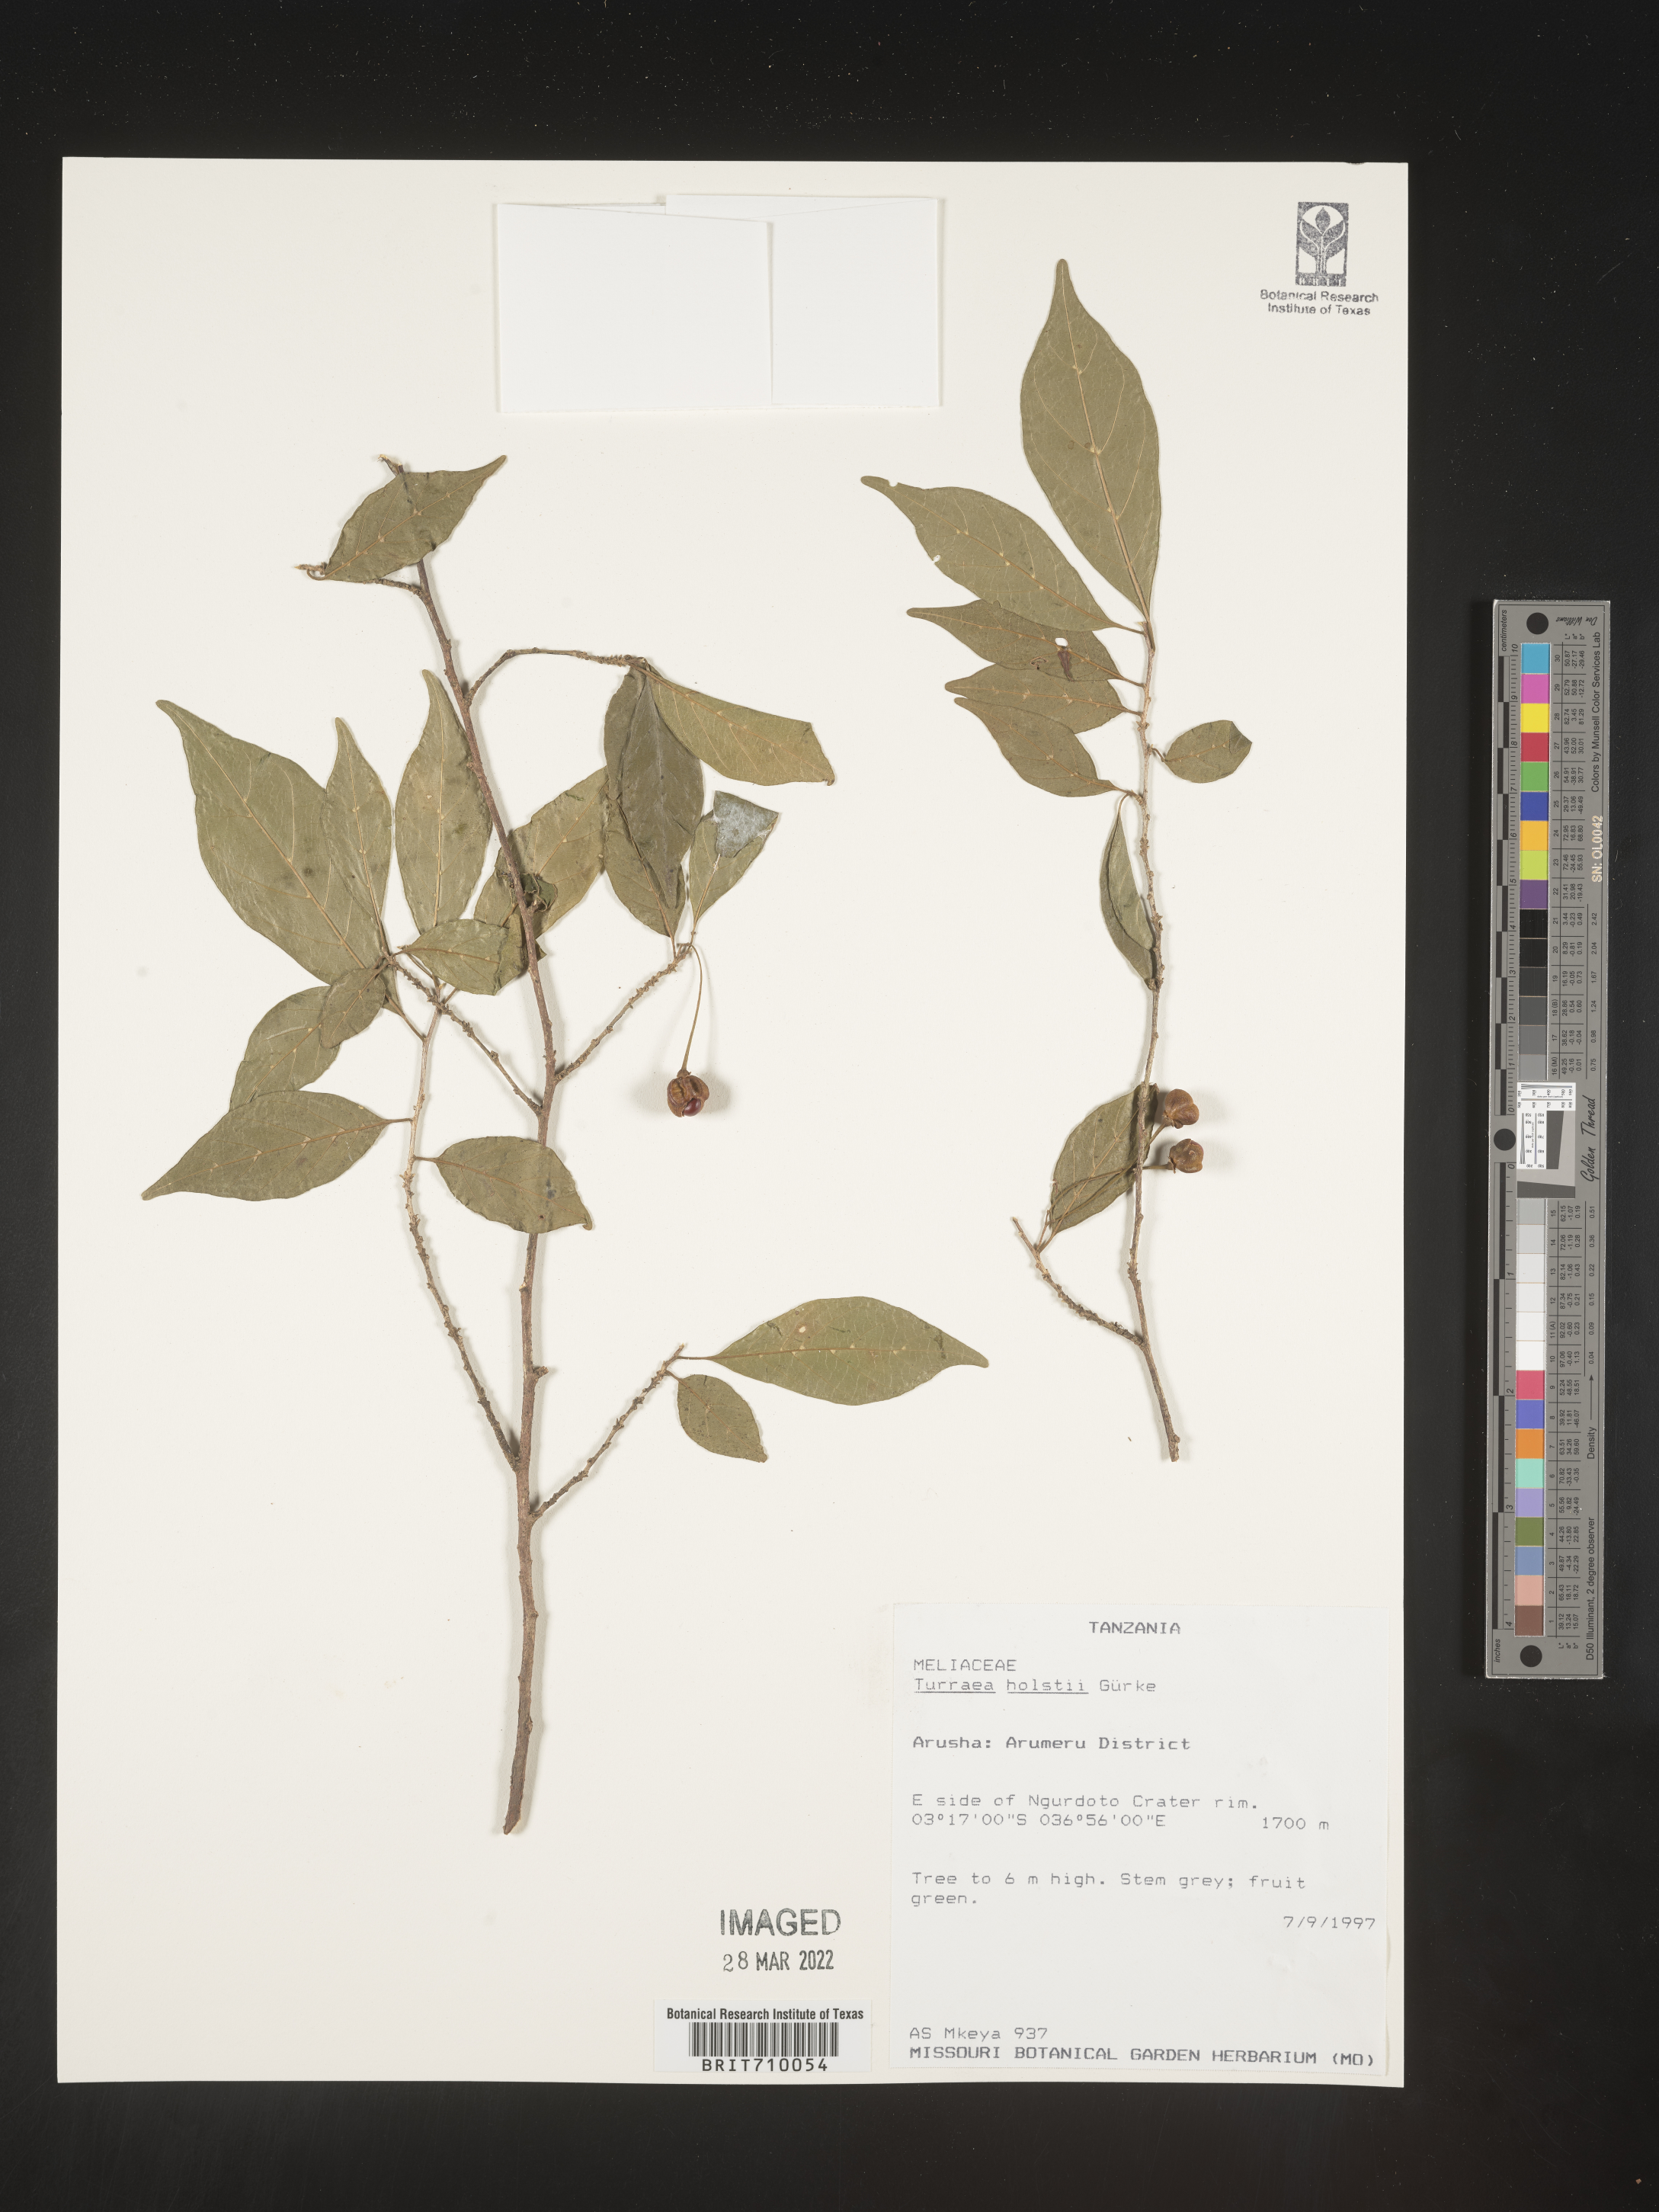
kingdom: Plantae
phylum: Tracheophyta
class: Magnoliopsida
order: Sapindales
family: Meliaceae
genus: Trichilia
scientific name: Trichilia
